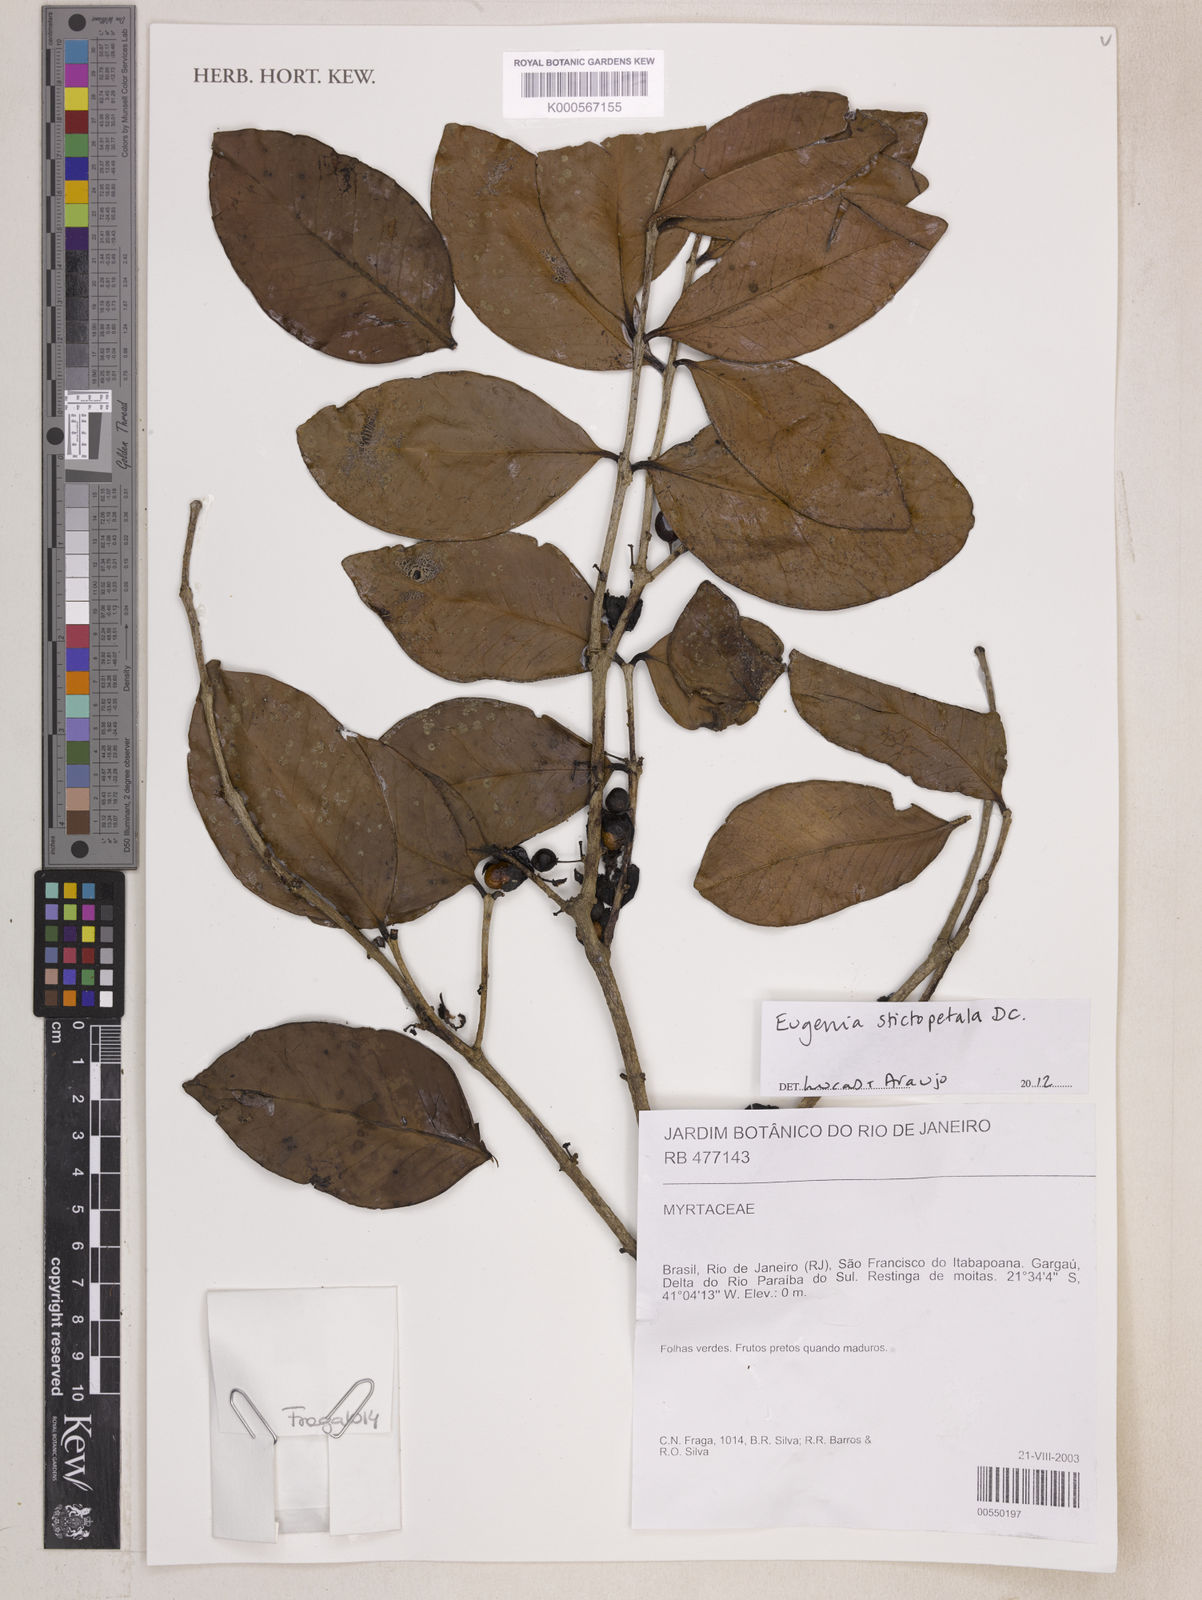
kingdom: Plantae
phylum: Tracheophyta
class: Magnoliopsida
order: Myrtales
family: Myrtaceae
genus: Eugenia
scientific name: Eugenia stictopetala
